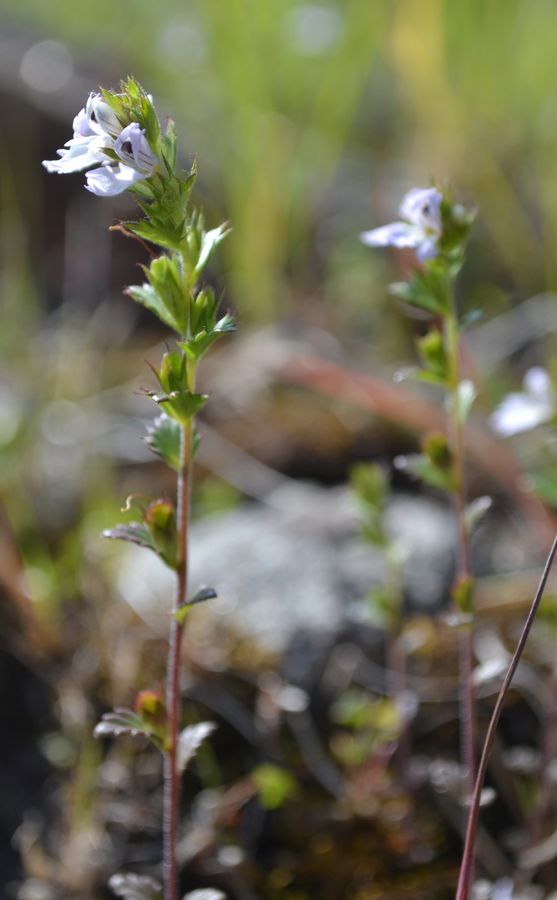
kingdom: Plantae
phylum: Tracheophyta
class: Magnoliopsida
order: Lamiales
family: Orobanchaceae
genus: Euphrasia
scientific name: Euphrasia frigida
